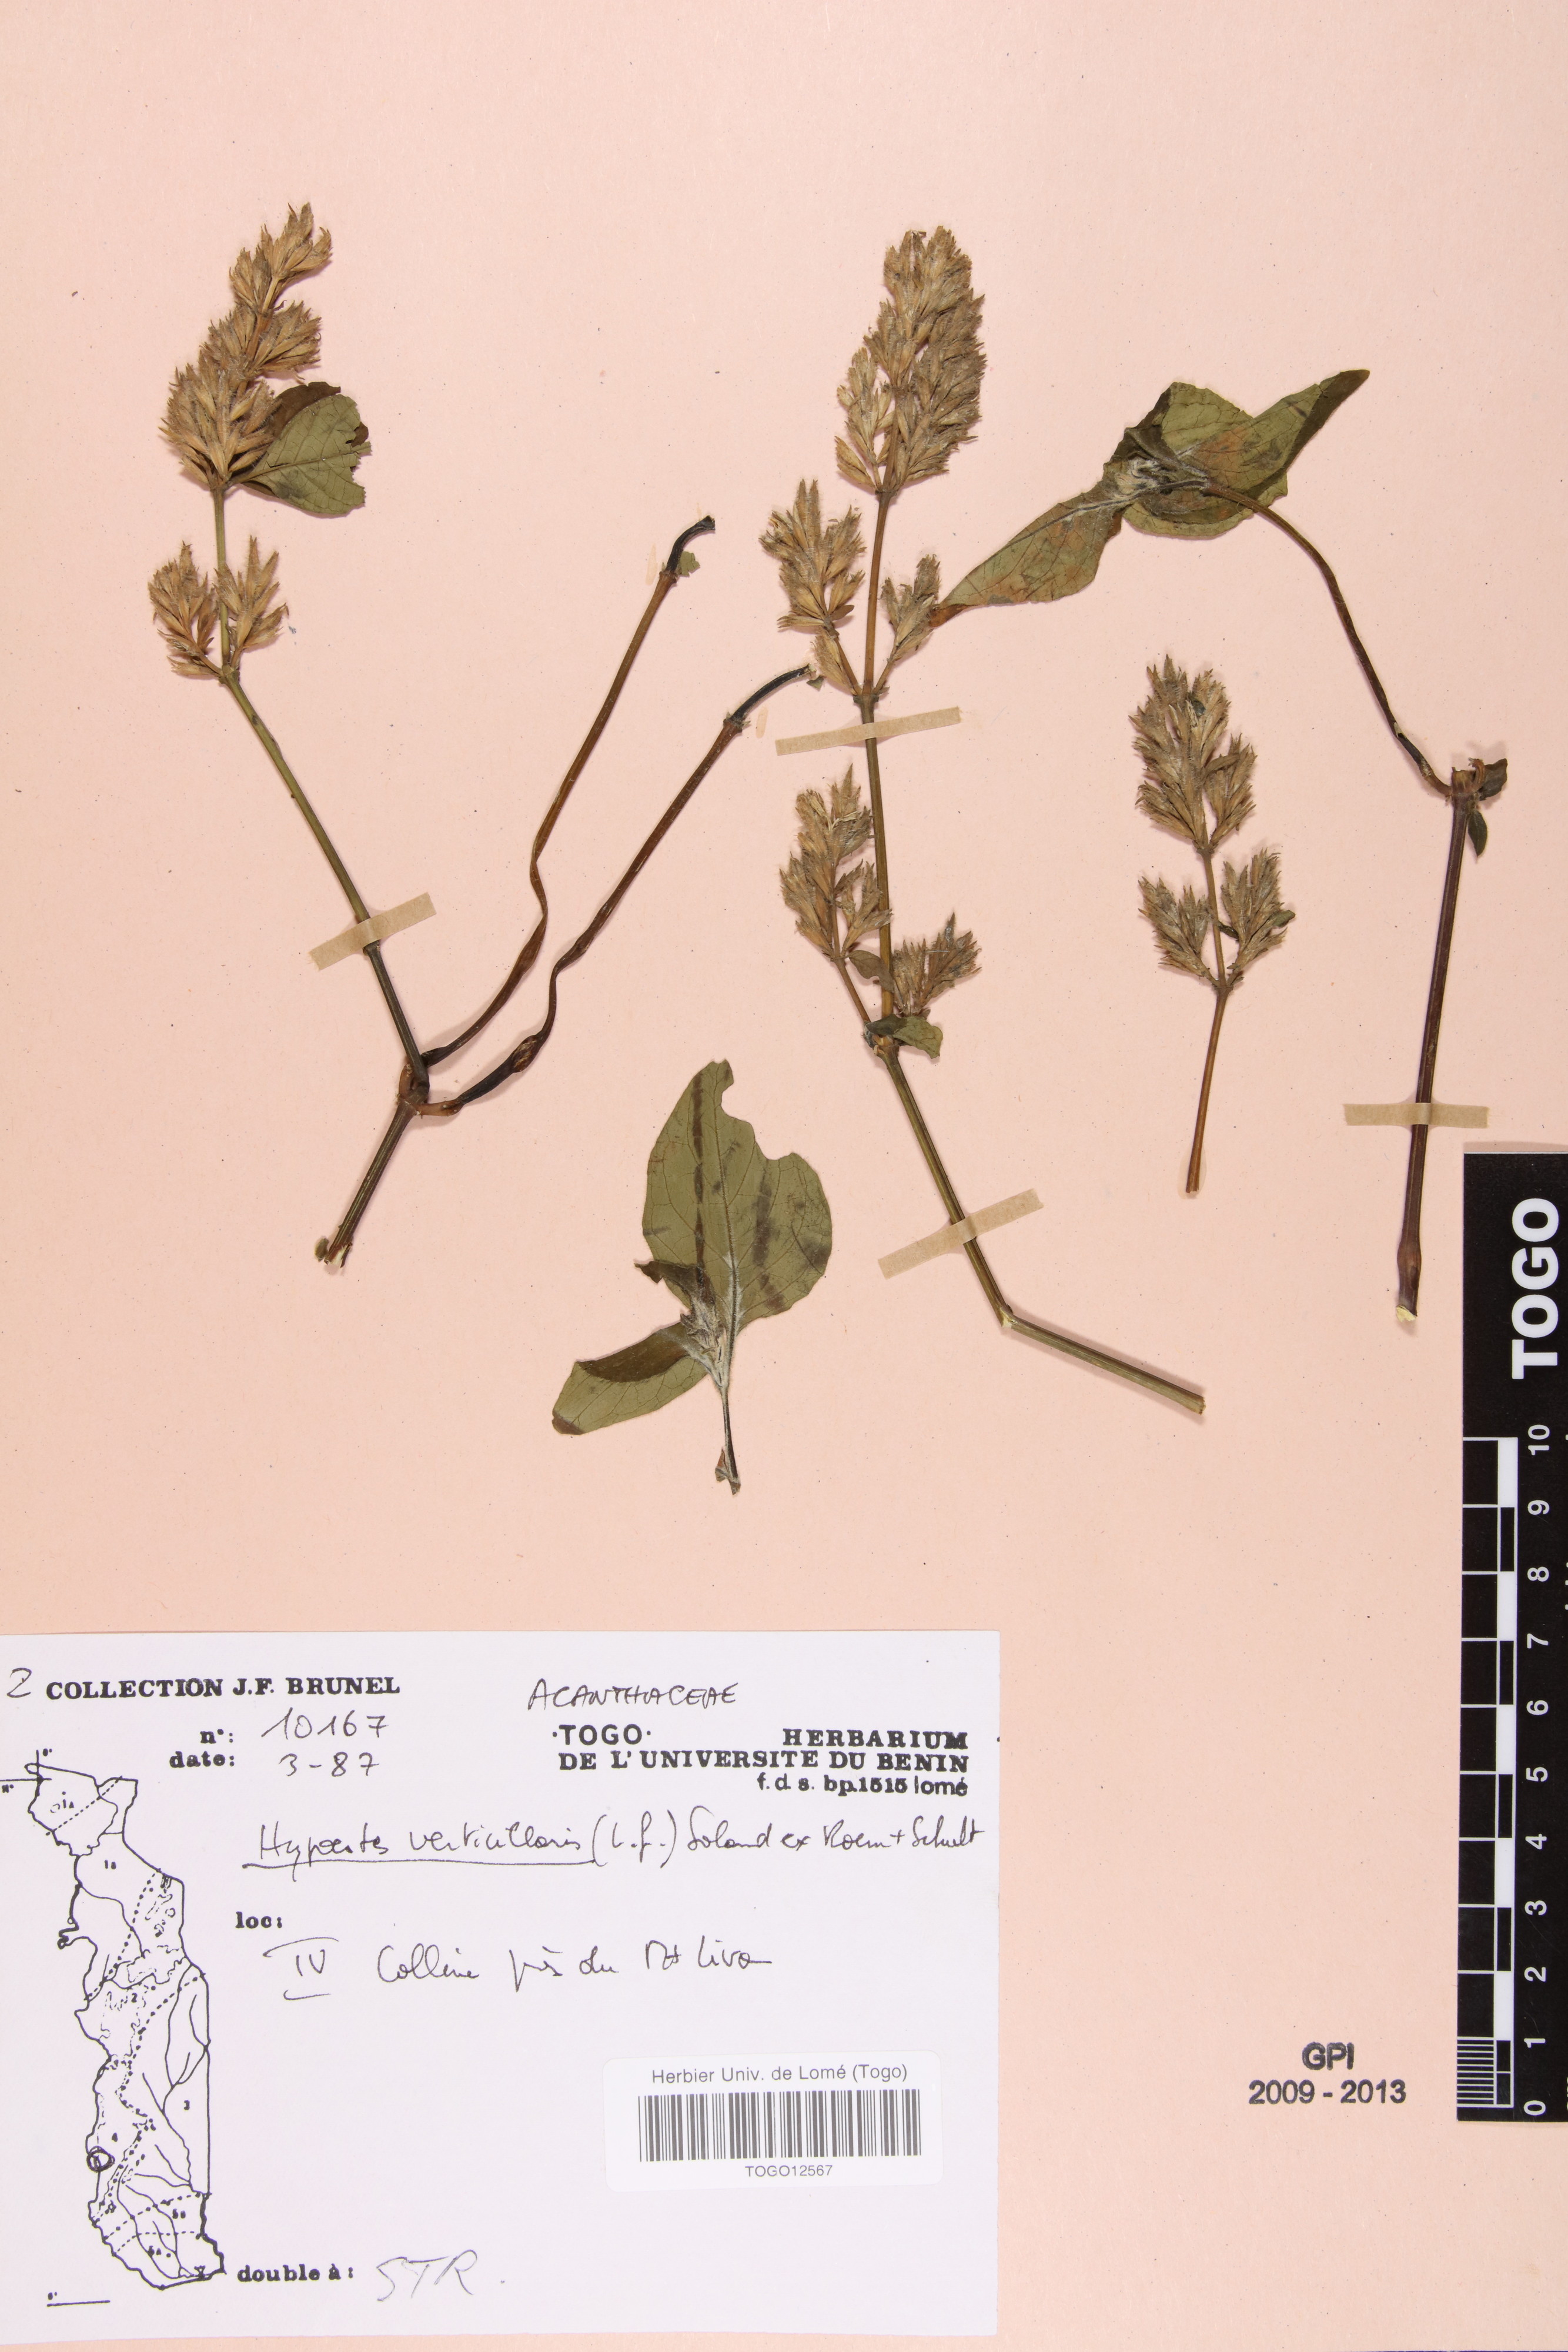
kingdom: Plantae
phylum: Tracheophyta
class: Magnoliopsida
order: Lamiales
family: Acanthaceae
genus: Hypoestes
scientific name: Hypoestes aristata
